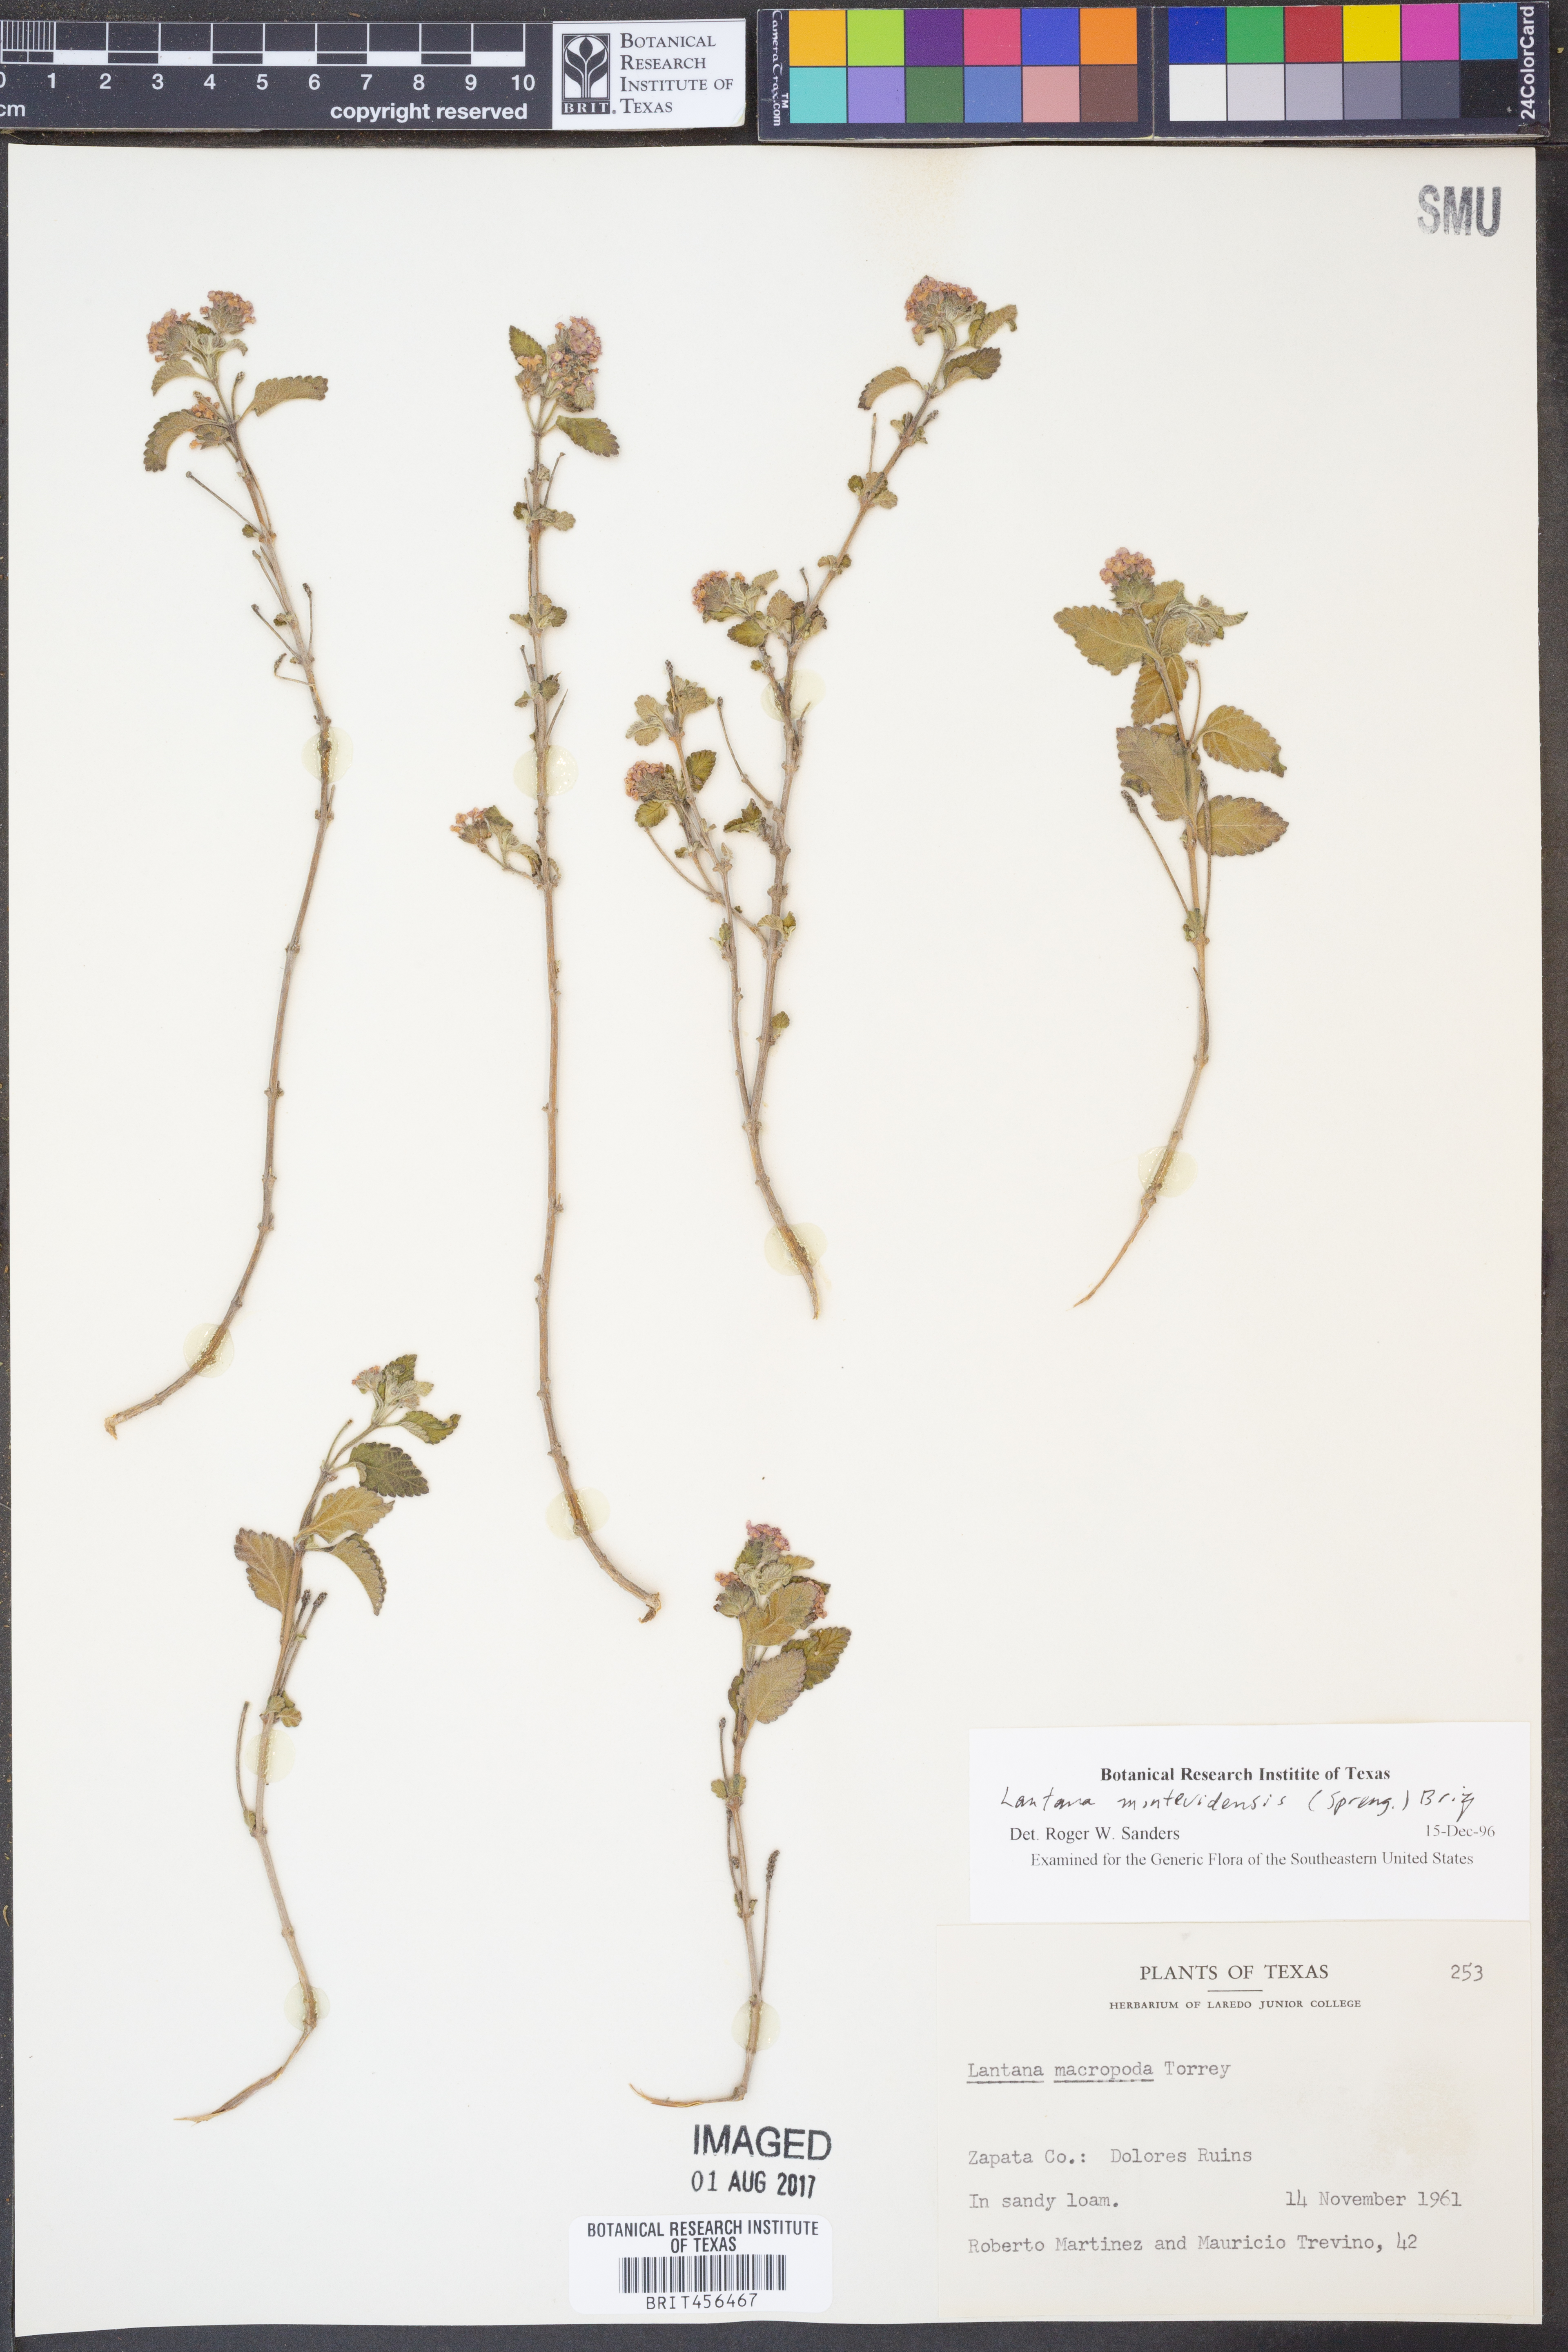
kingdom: Plantae
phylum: Tracheophyta
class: Magnoliopsida
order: Lamiales
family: Verbenaceae
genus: Lantana
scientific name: Lantana montevidensis
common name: Trailing shrubverbena
